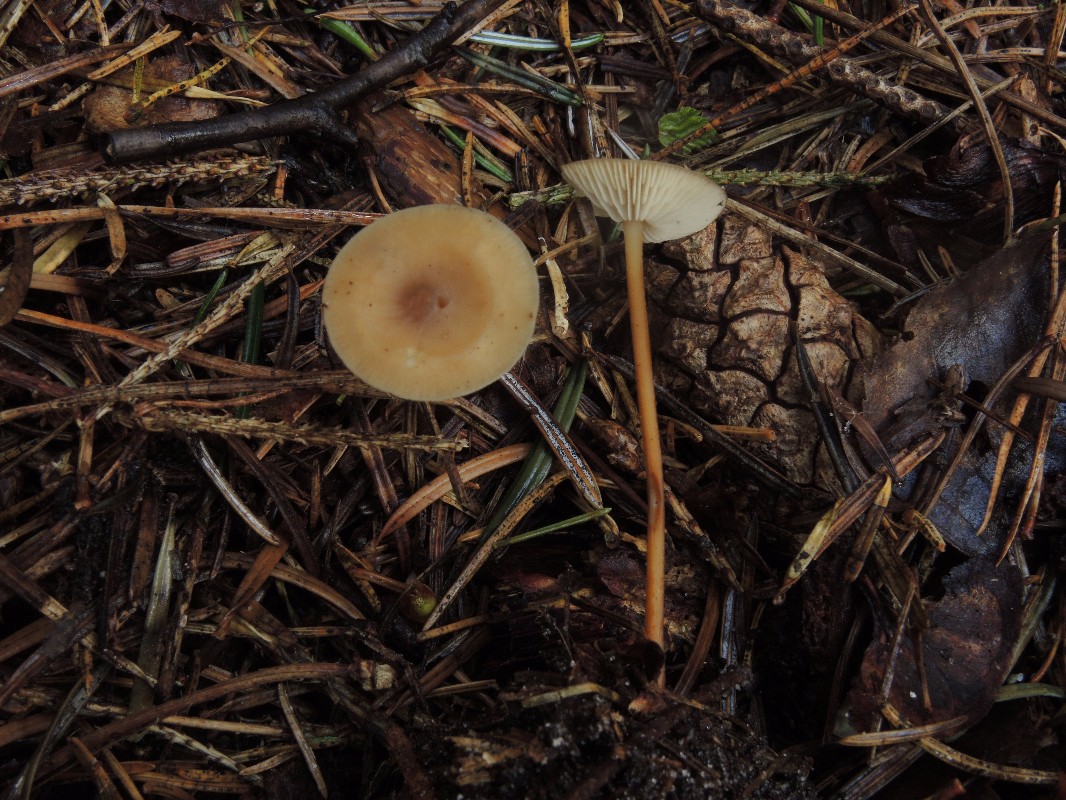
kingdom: Fungi
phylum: Basidiomycota
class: Agaricomycetes
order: Agaricales
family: Physalacriaceae
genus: Strobilurus
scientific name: Strobilurus stephanocystis
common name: fyrre-koglehat
